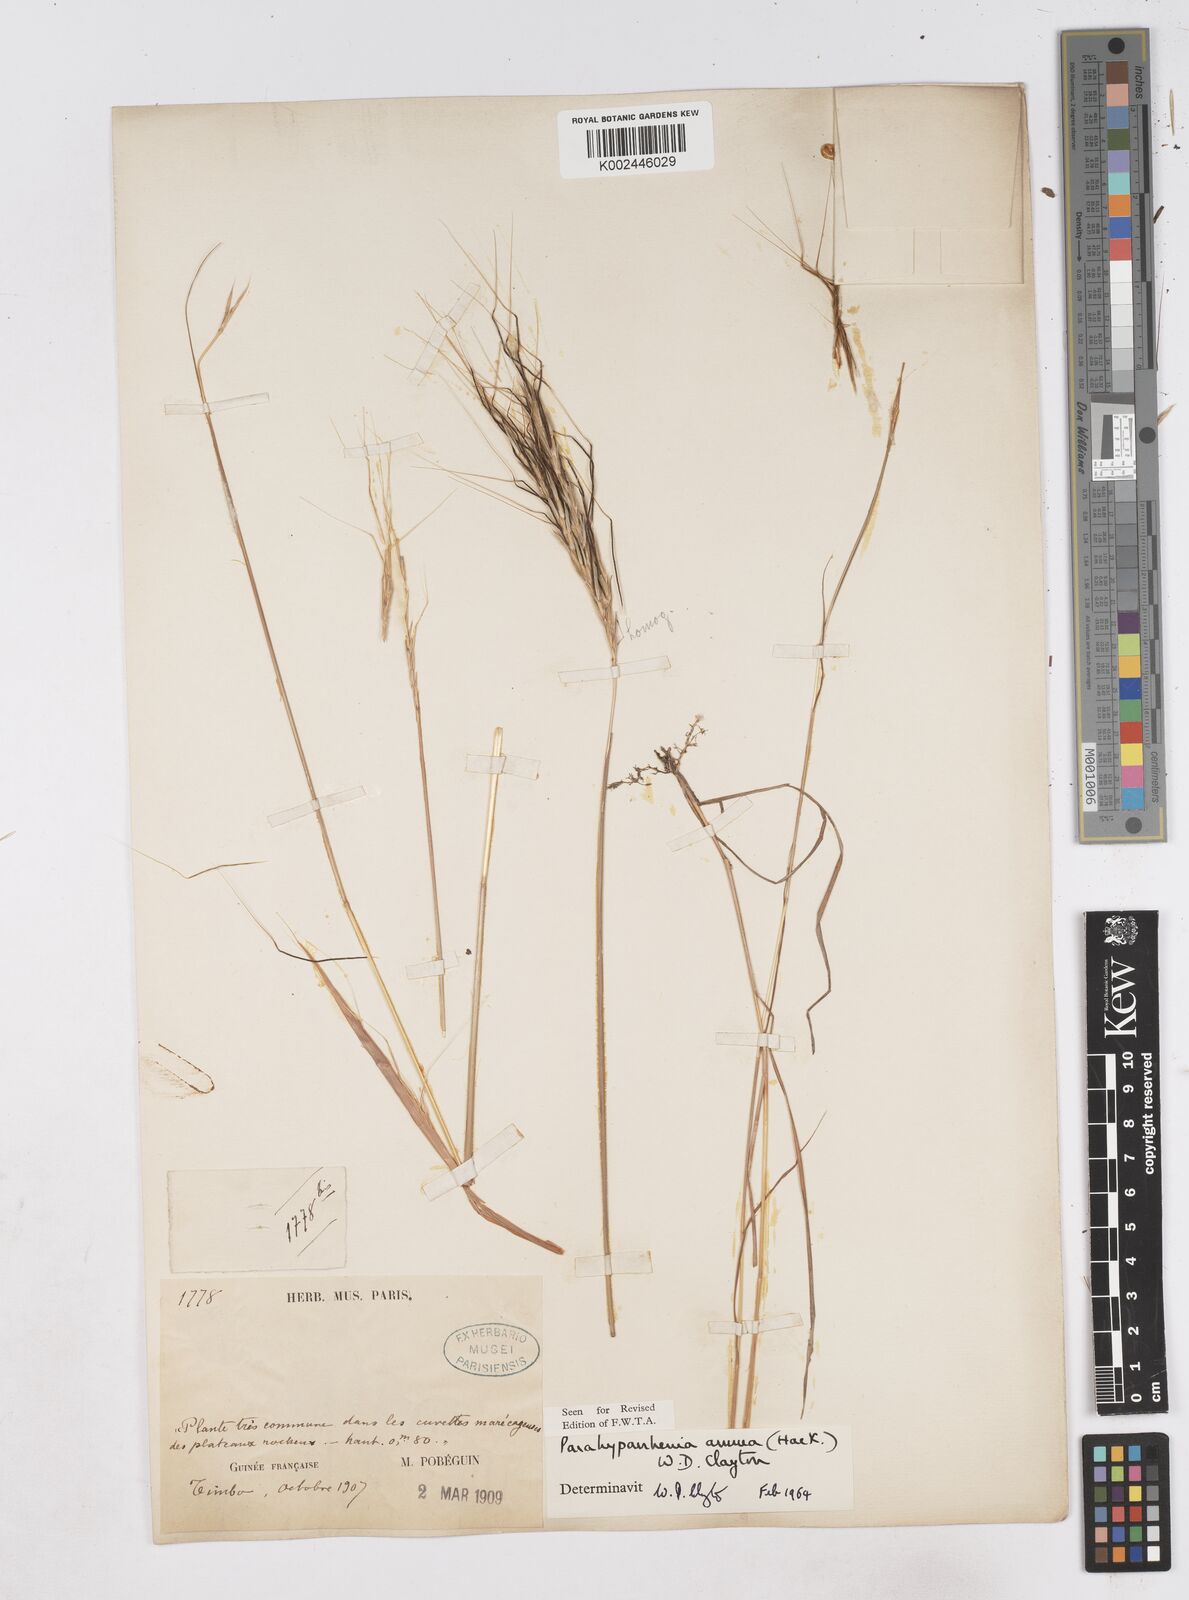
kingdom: Plantae
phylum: Tracheophyta
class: Liliopsida
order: Poales
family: Poaceae
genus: Parahyparrhenia
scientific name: Parahyparrhenia annua
